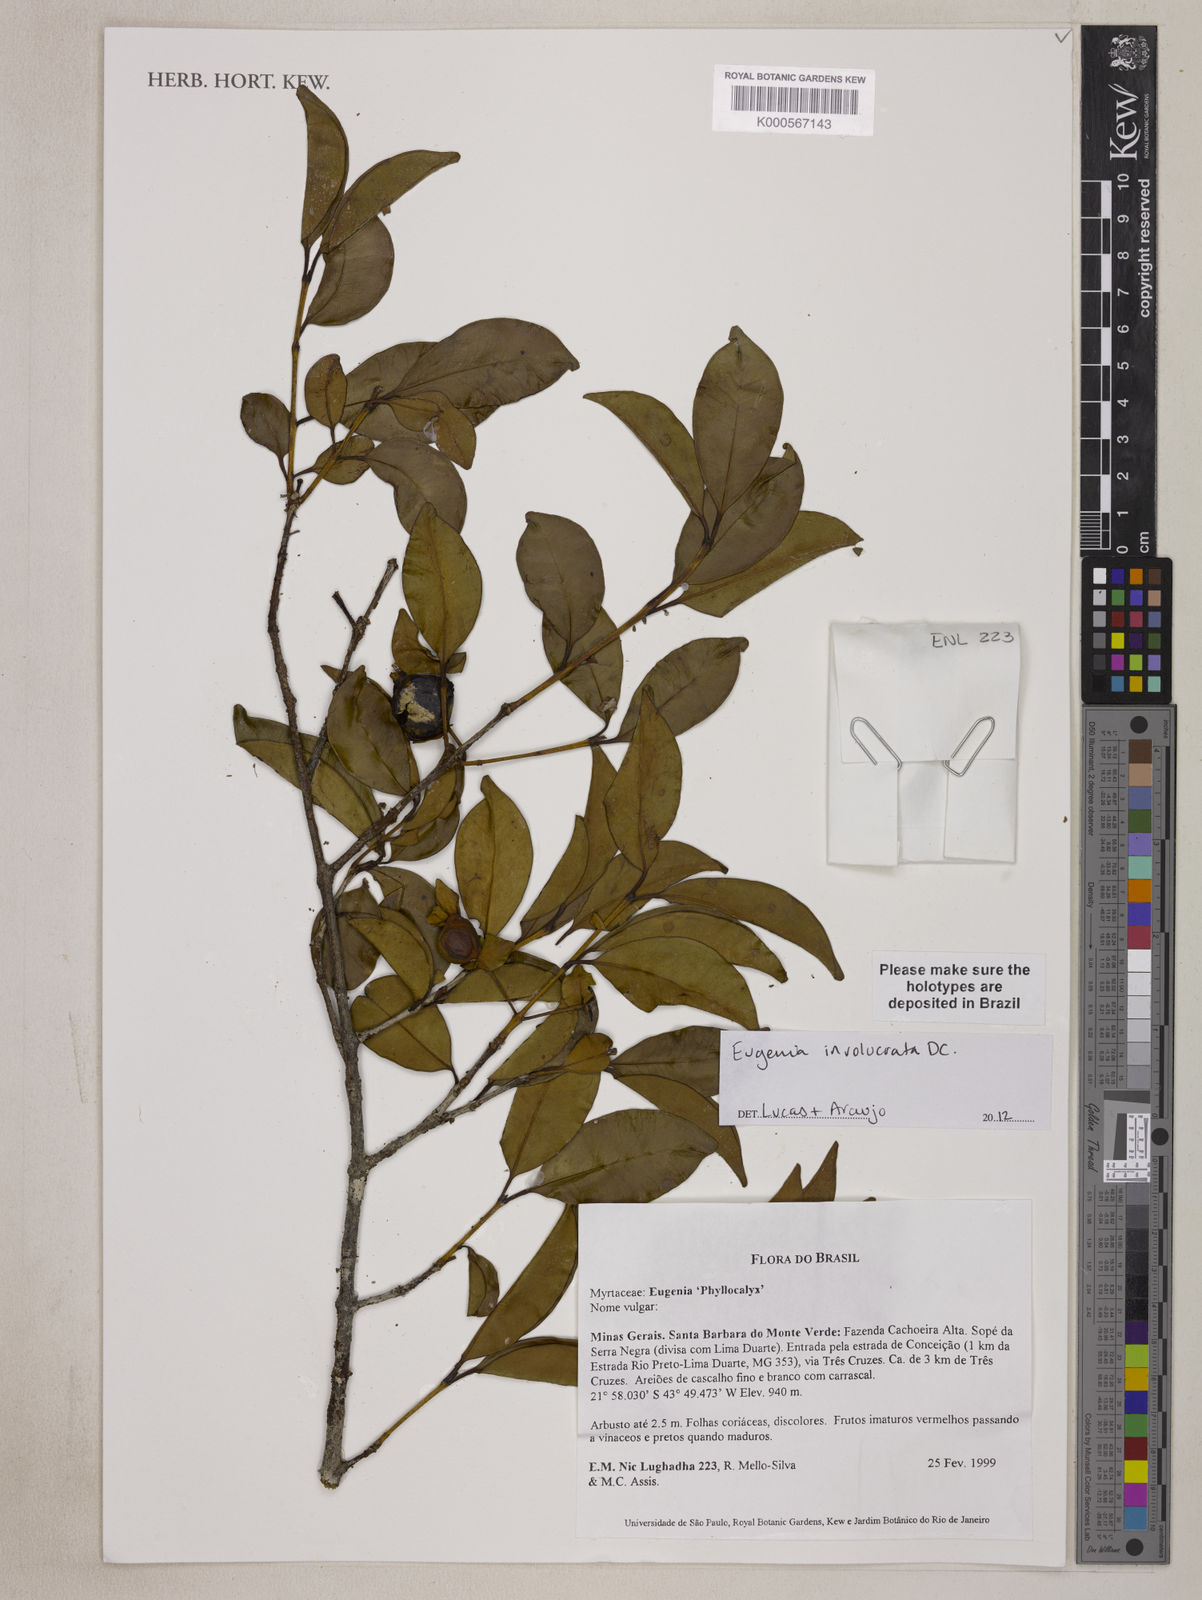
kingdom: Plantae
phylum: Tracheophyta
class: Magnoliopsida
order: Myrtales
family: Myrtaceae
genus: Eugenia
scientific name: Eugenia involucrata
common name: Cherry-of-the-rio grande
